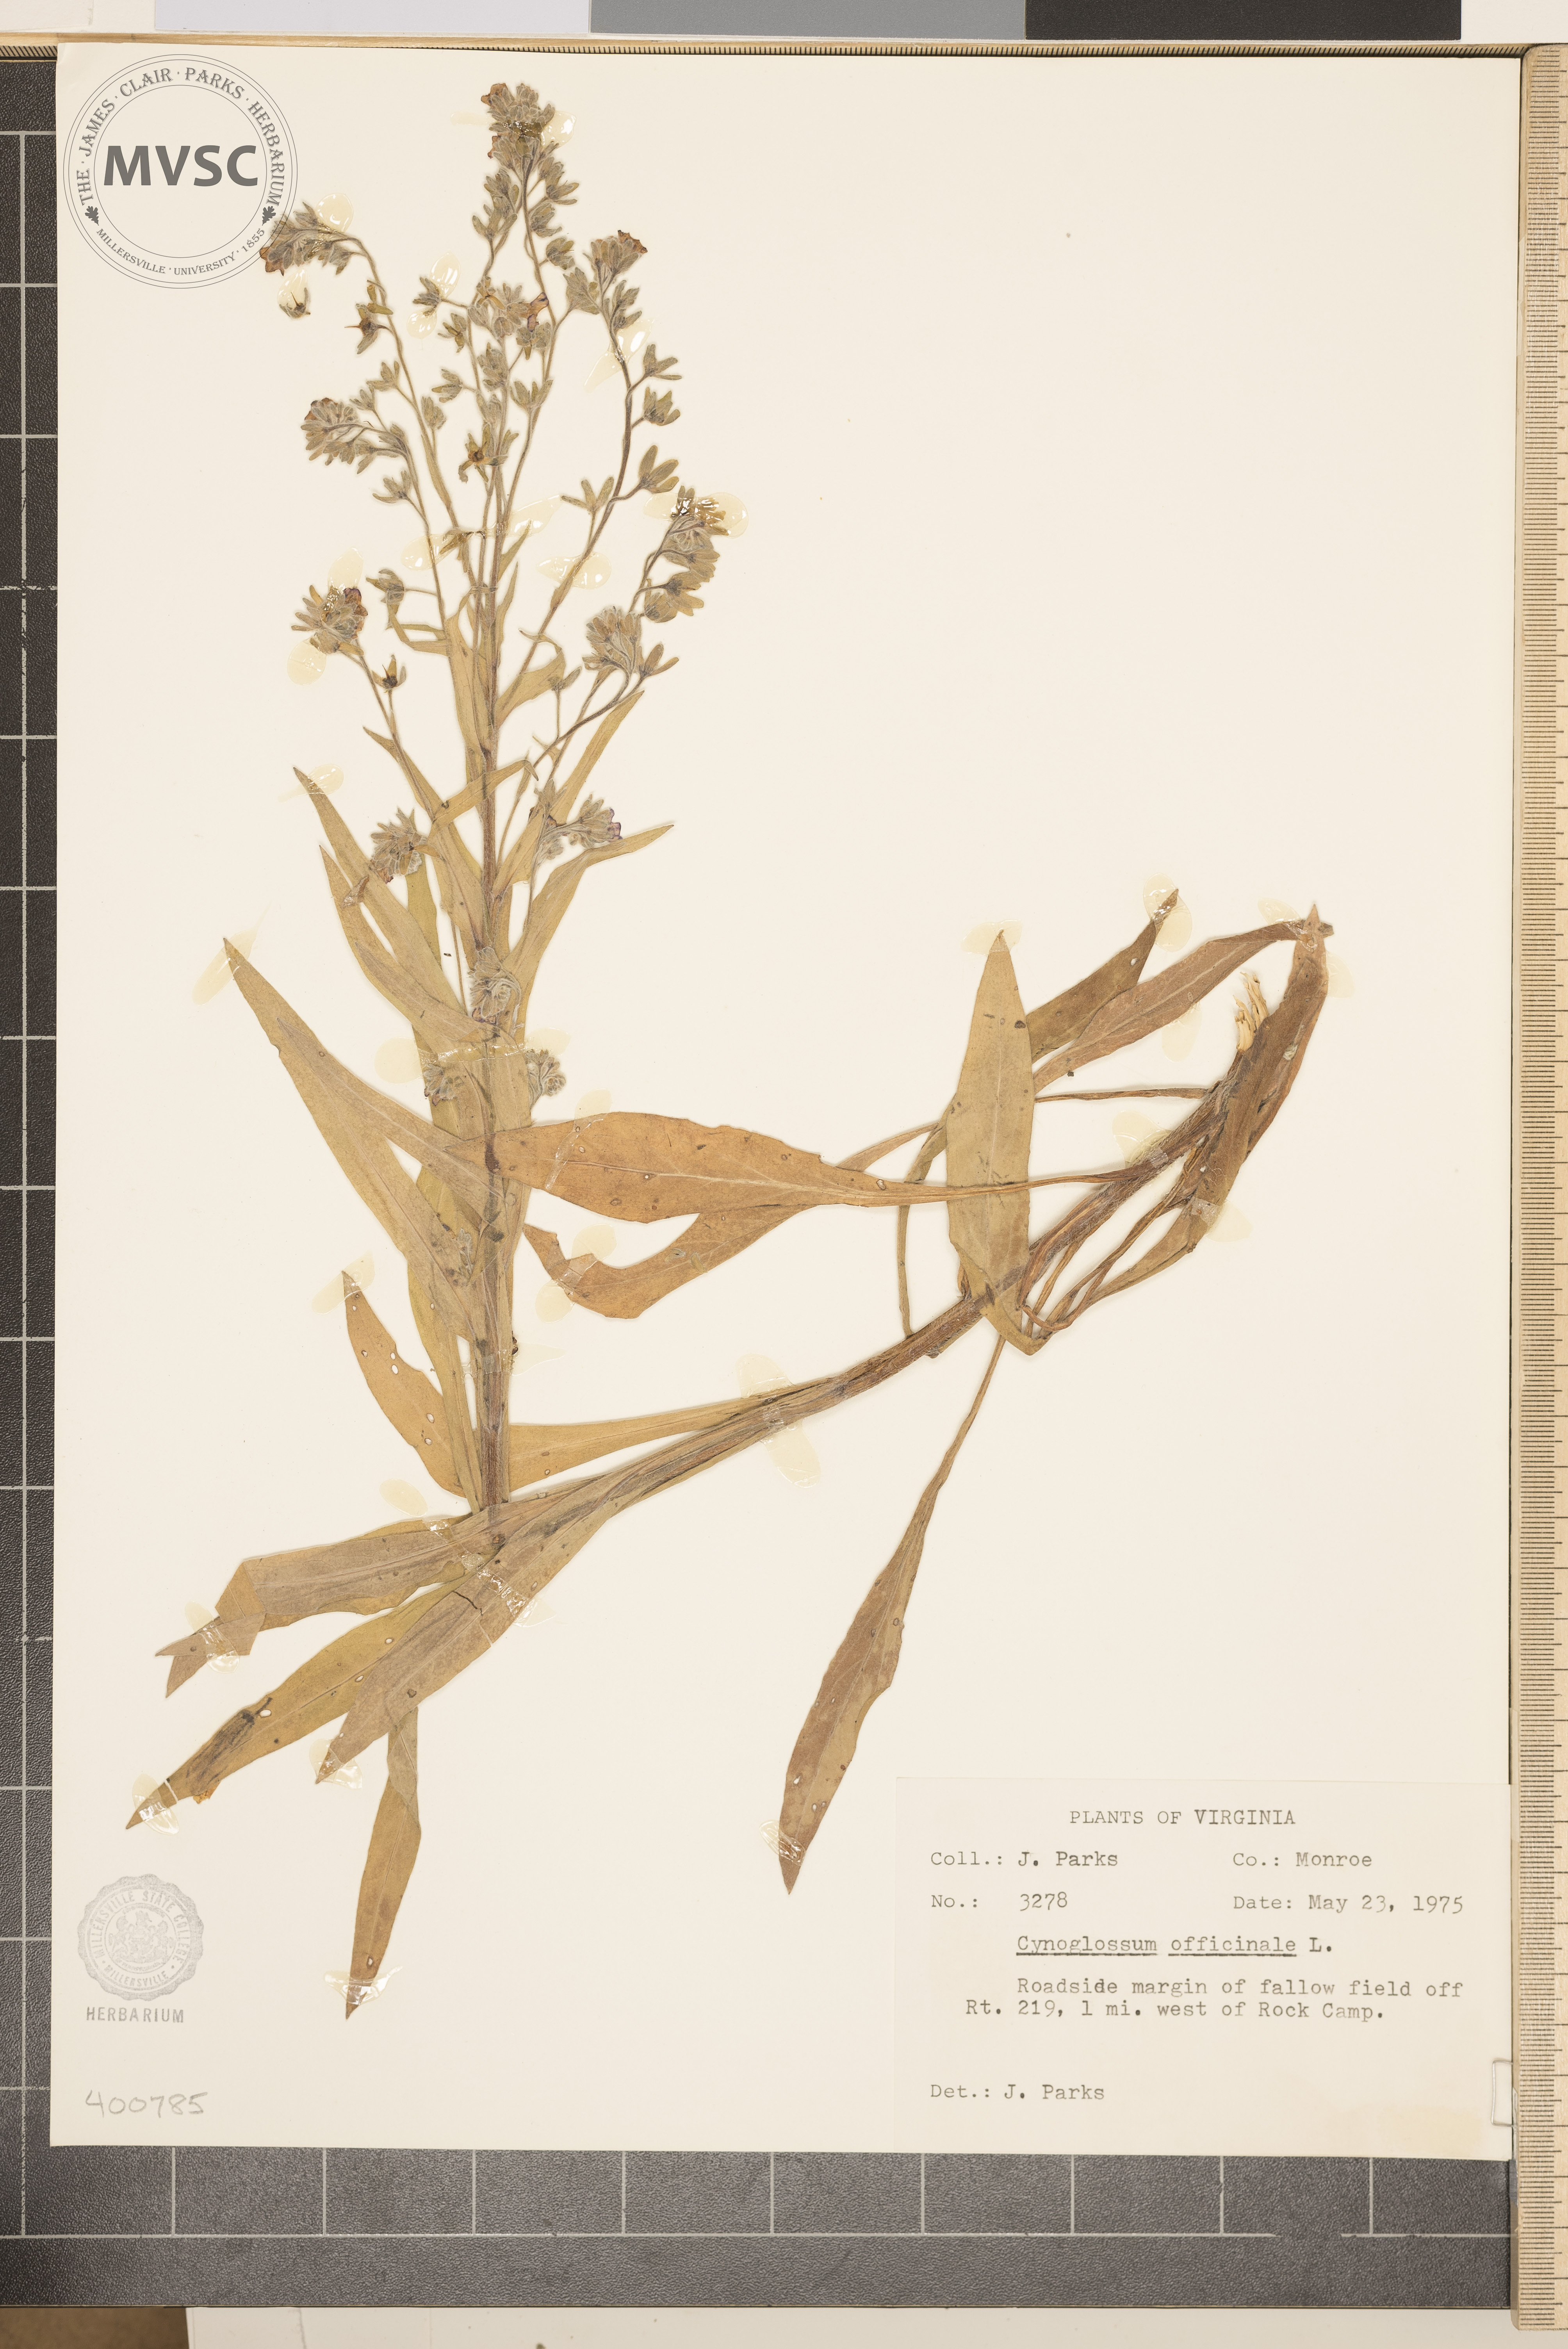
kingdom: Plantae
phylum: Tracheophyta
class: Magnoliopsida
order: Boraginales
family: Boraginaceae
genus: Cynoglossum
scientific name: Cynoglossum officinale
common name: Hound's-tongue
